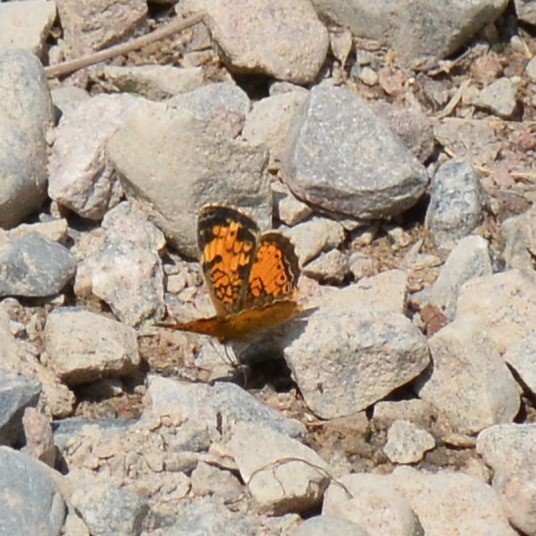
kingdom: Animalia
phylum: Arthropoda
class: Insecta
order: Lepidoptera
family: Nymphalidae
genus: Phyciodes
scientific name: Phyciodes tharos
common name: Northern Crescent
